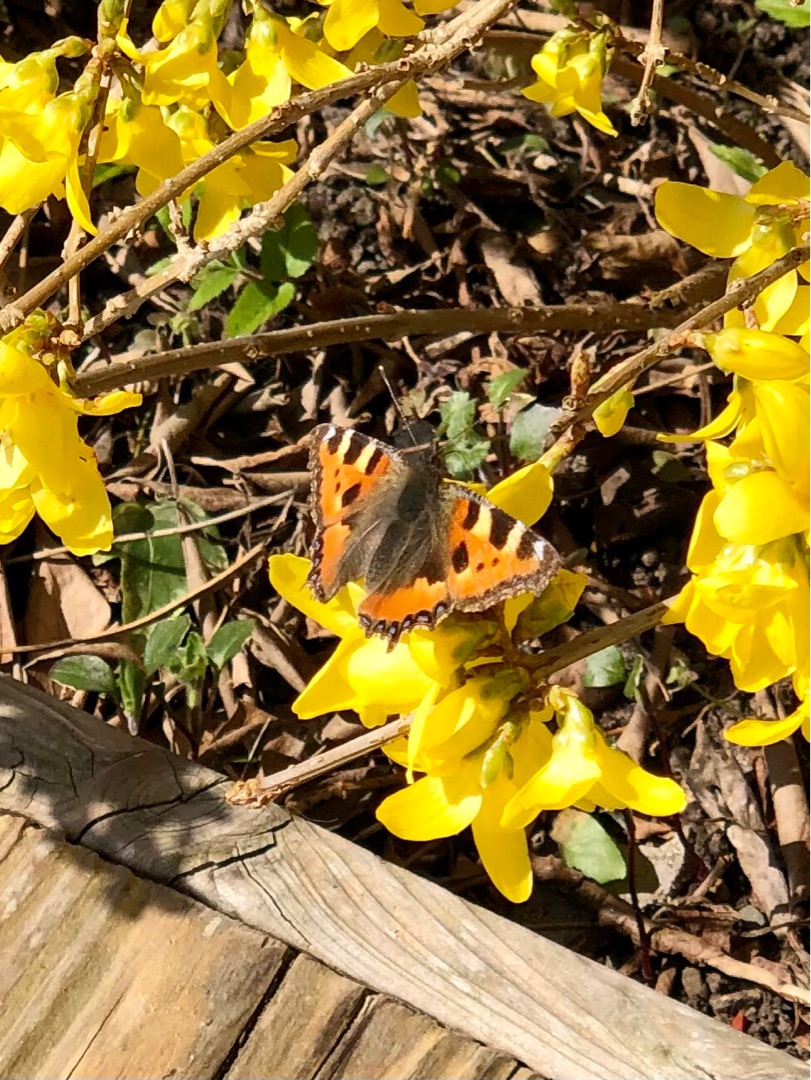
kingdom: Animalia
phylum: Arthropoda
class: Insecta
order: Lepidoptera
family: Nymphalidae
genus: Aglais
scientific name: Aglais urticae
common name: Nældens takvinge
